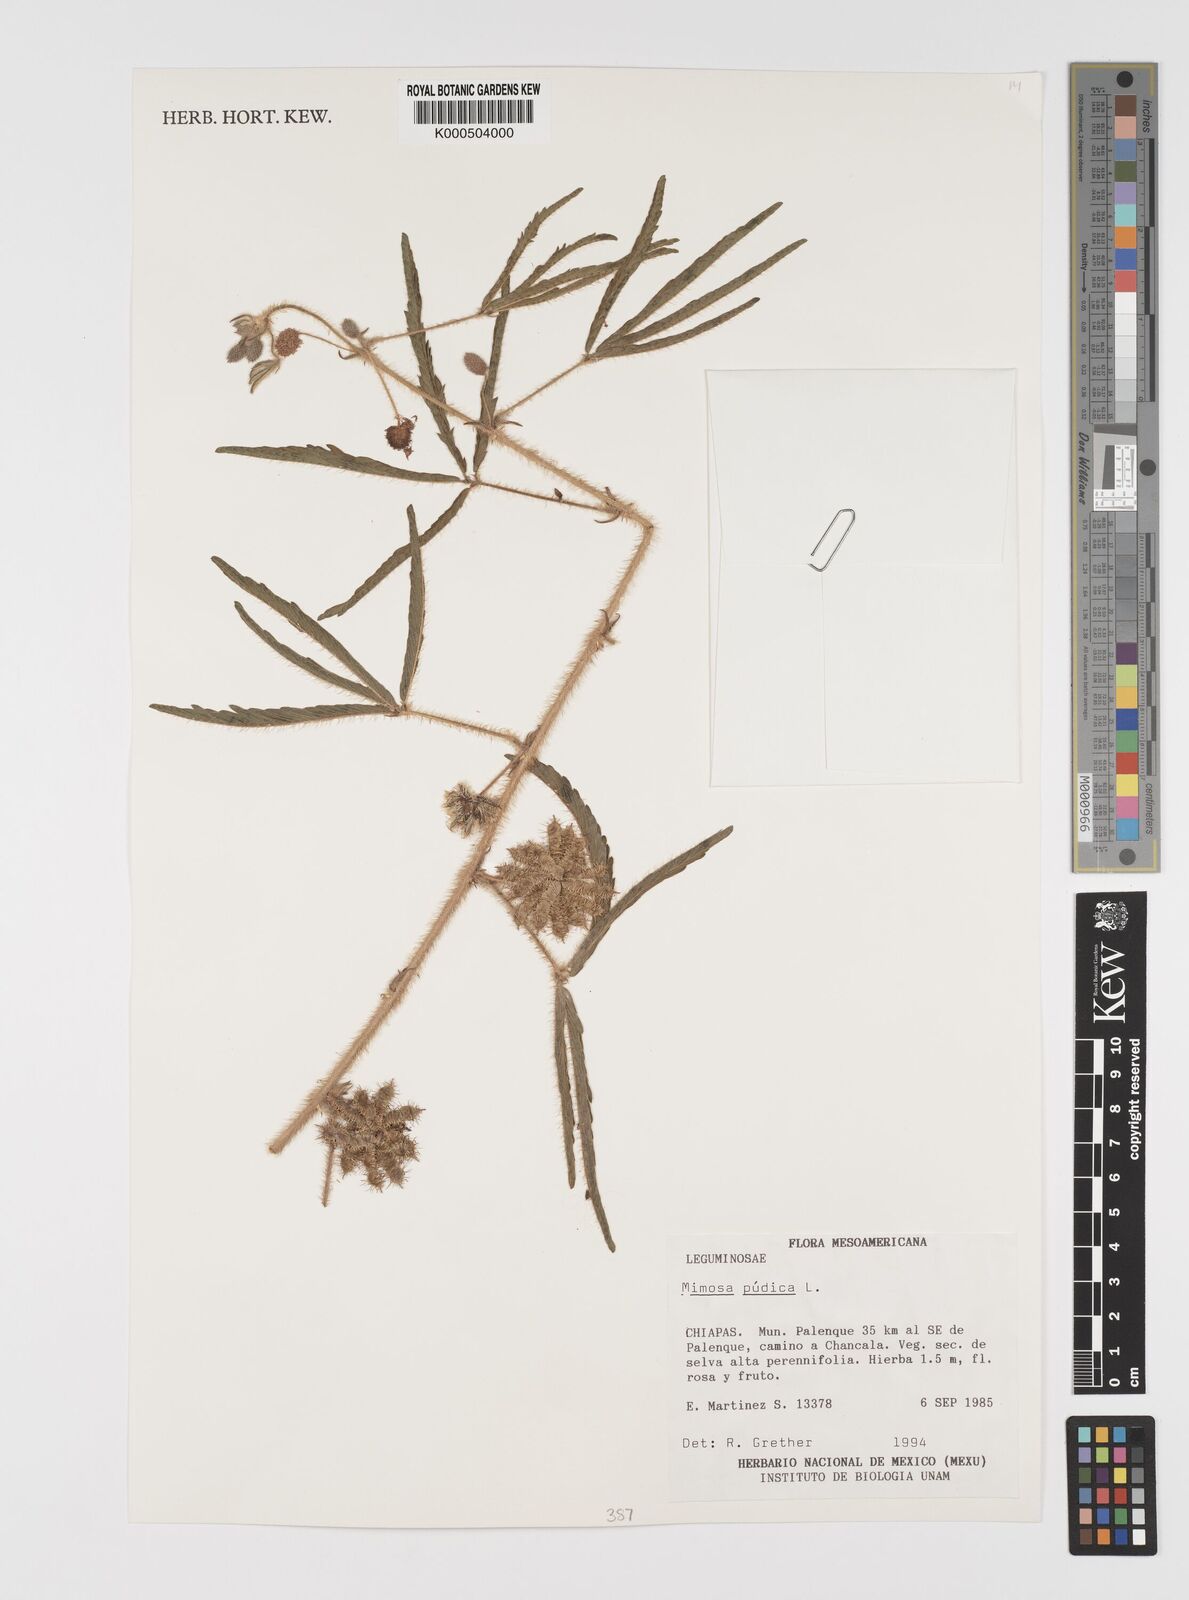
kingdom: Plantae
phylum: Tracheophyta
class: Magnoliopsida
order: Fabales
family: Fabaceae
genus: Mimosa
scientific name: Mimosa pudica
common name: Sensitive plant
